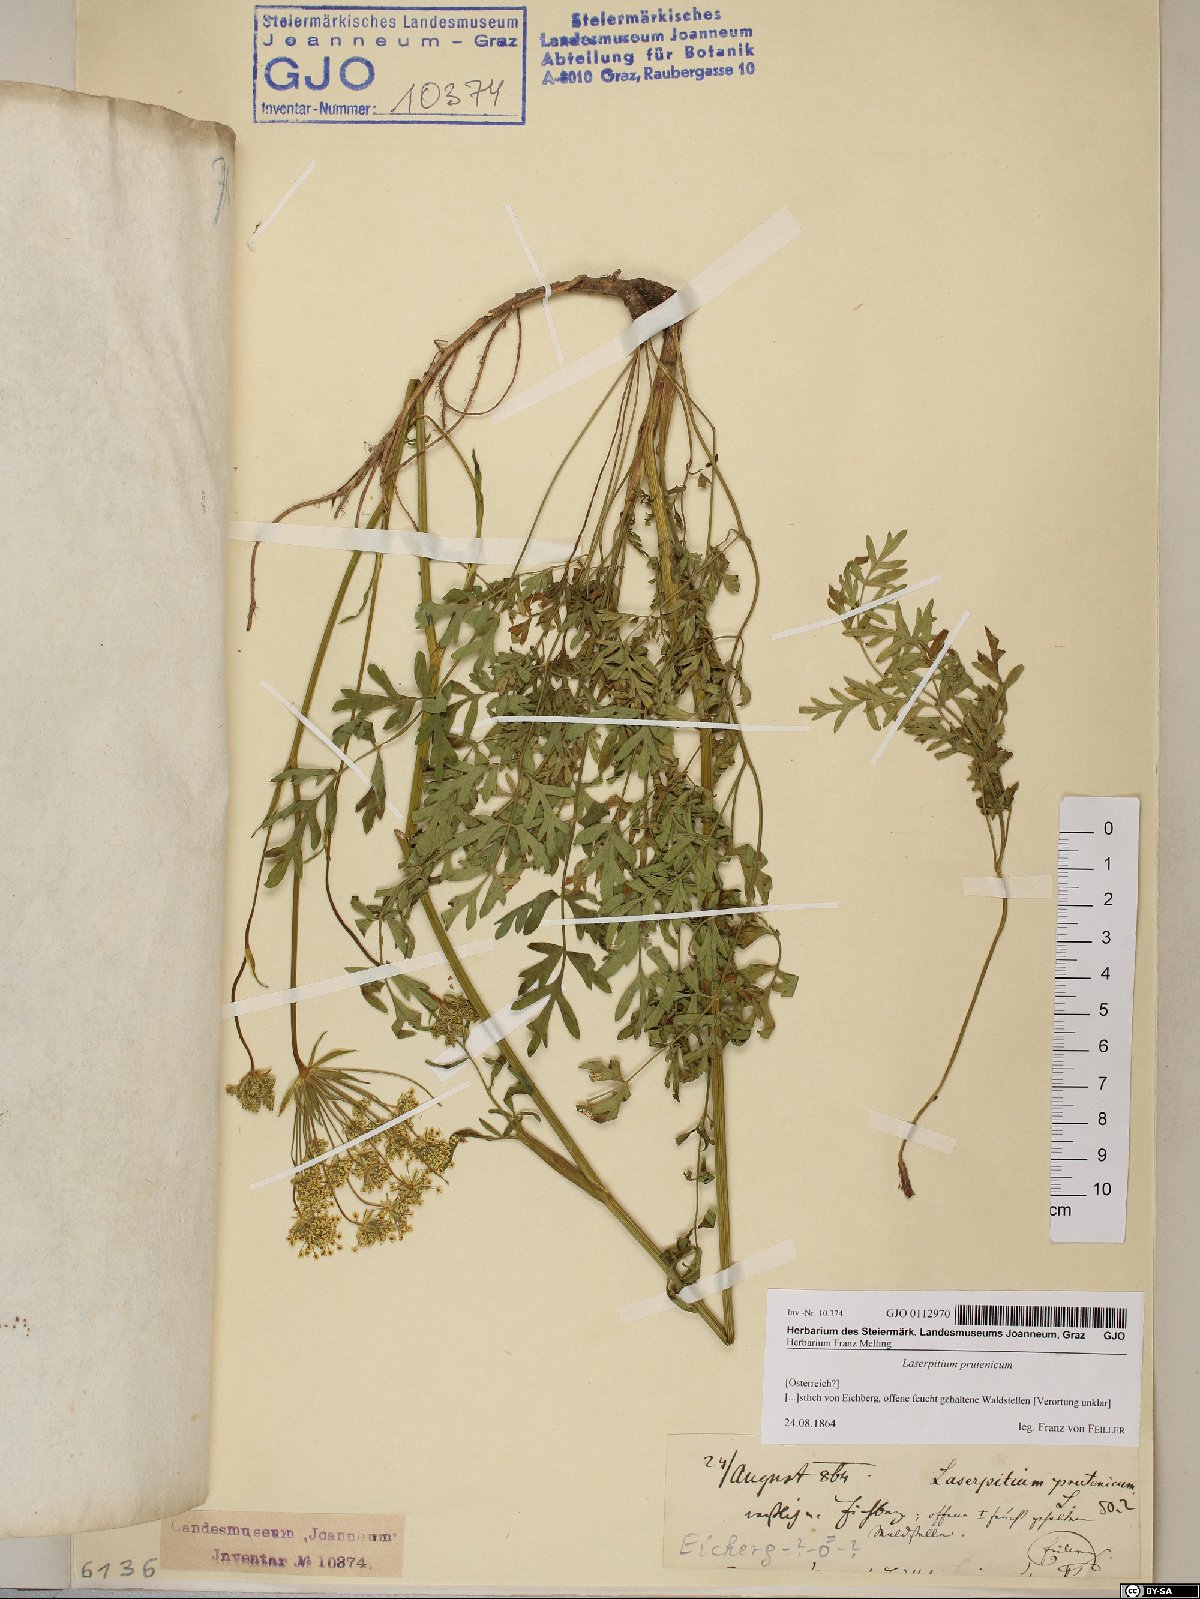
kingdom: Plantae
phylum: Tracheophyta
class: Magnoliopsida
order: Apiales
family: Apiaceae
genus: Silphiodaucus
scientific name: Silphiodaucus prutenicus
